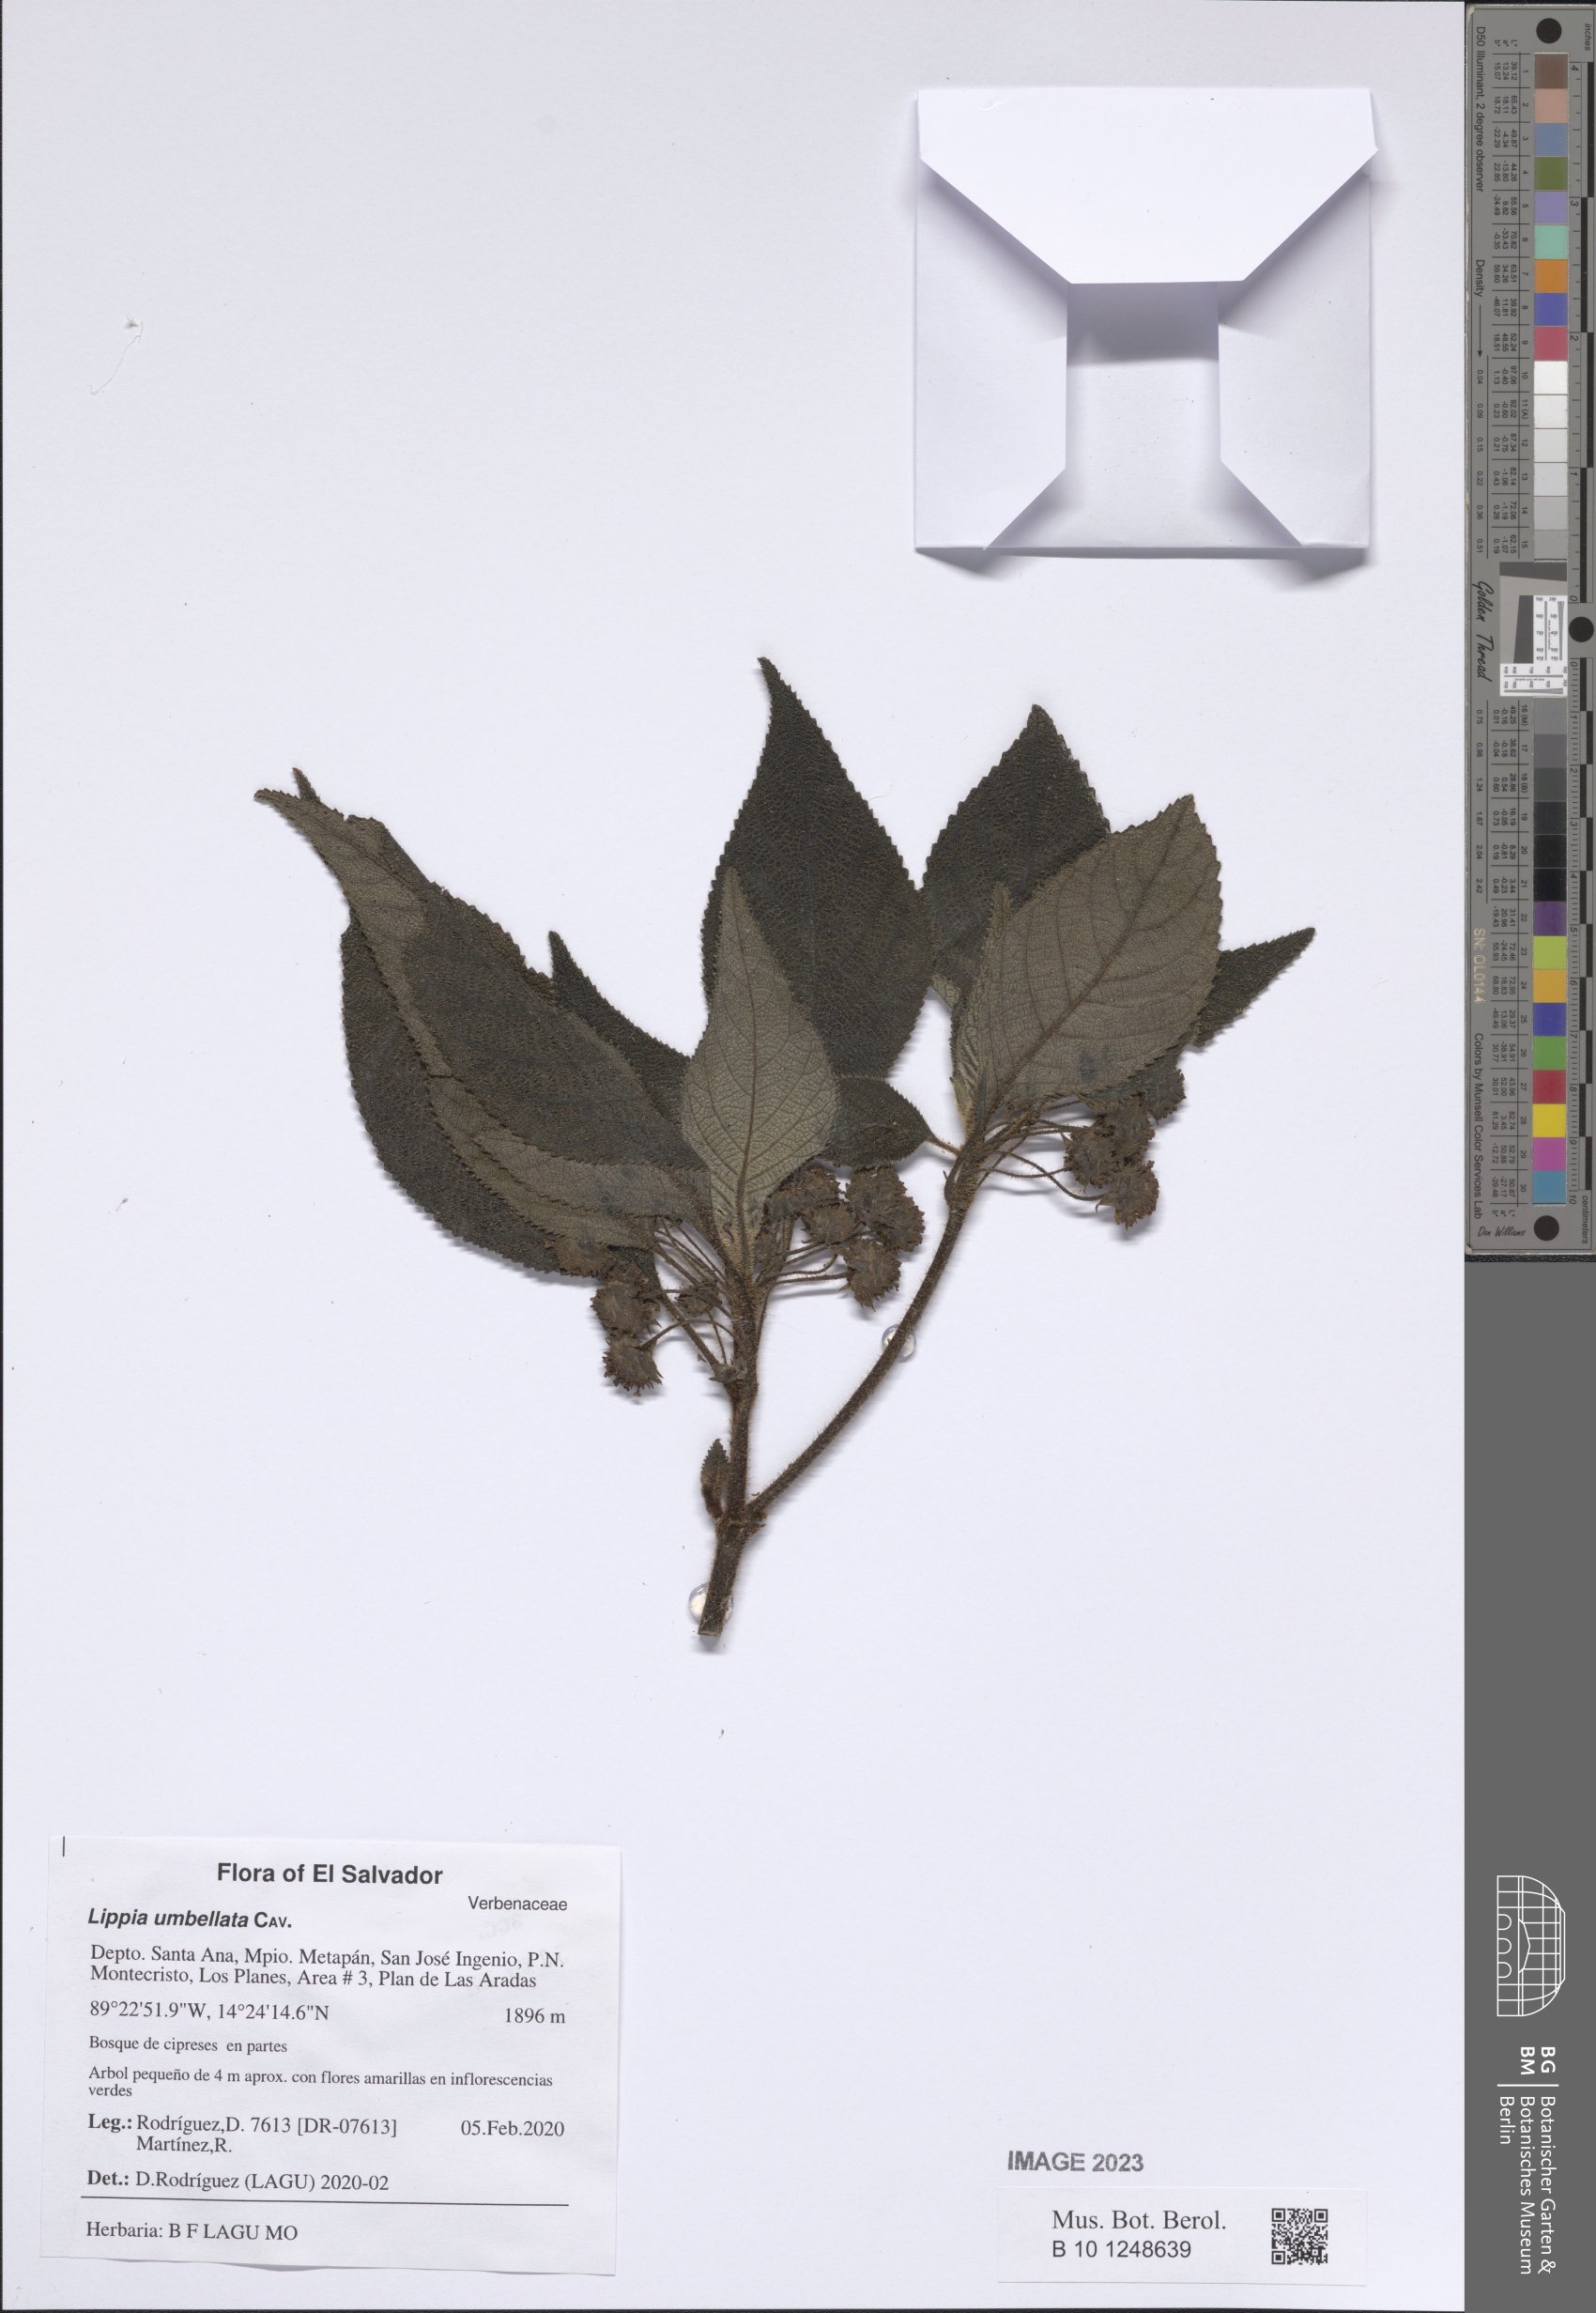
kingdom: Plantae
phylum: Tracheophyta
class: Magnoliopsida
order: Lamiales
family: Verbenaceae
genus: Lippia
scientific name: Lippia umbellata
